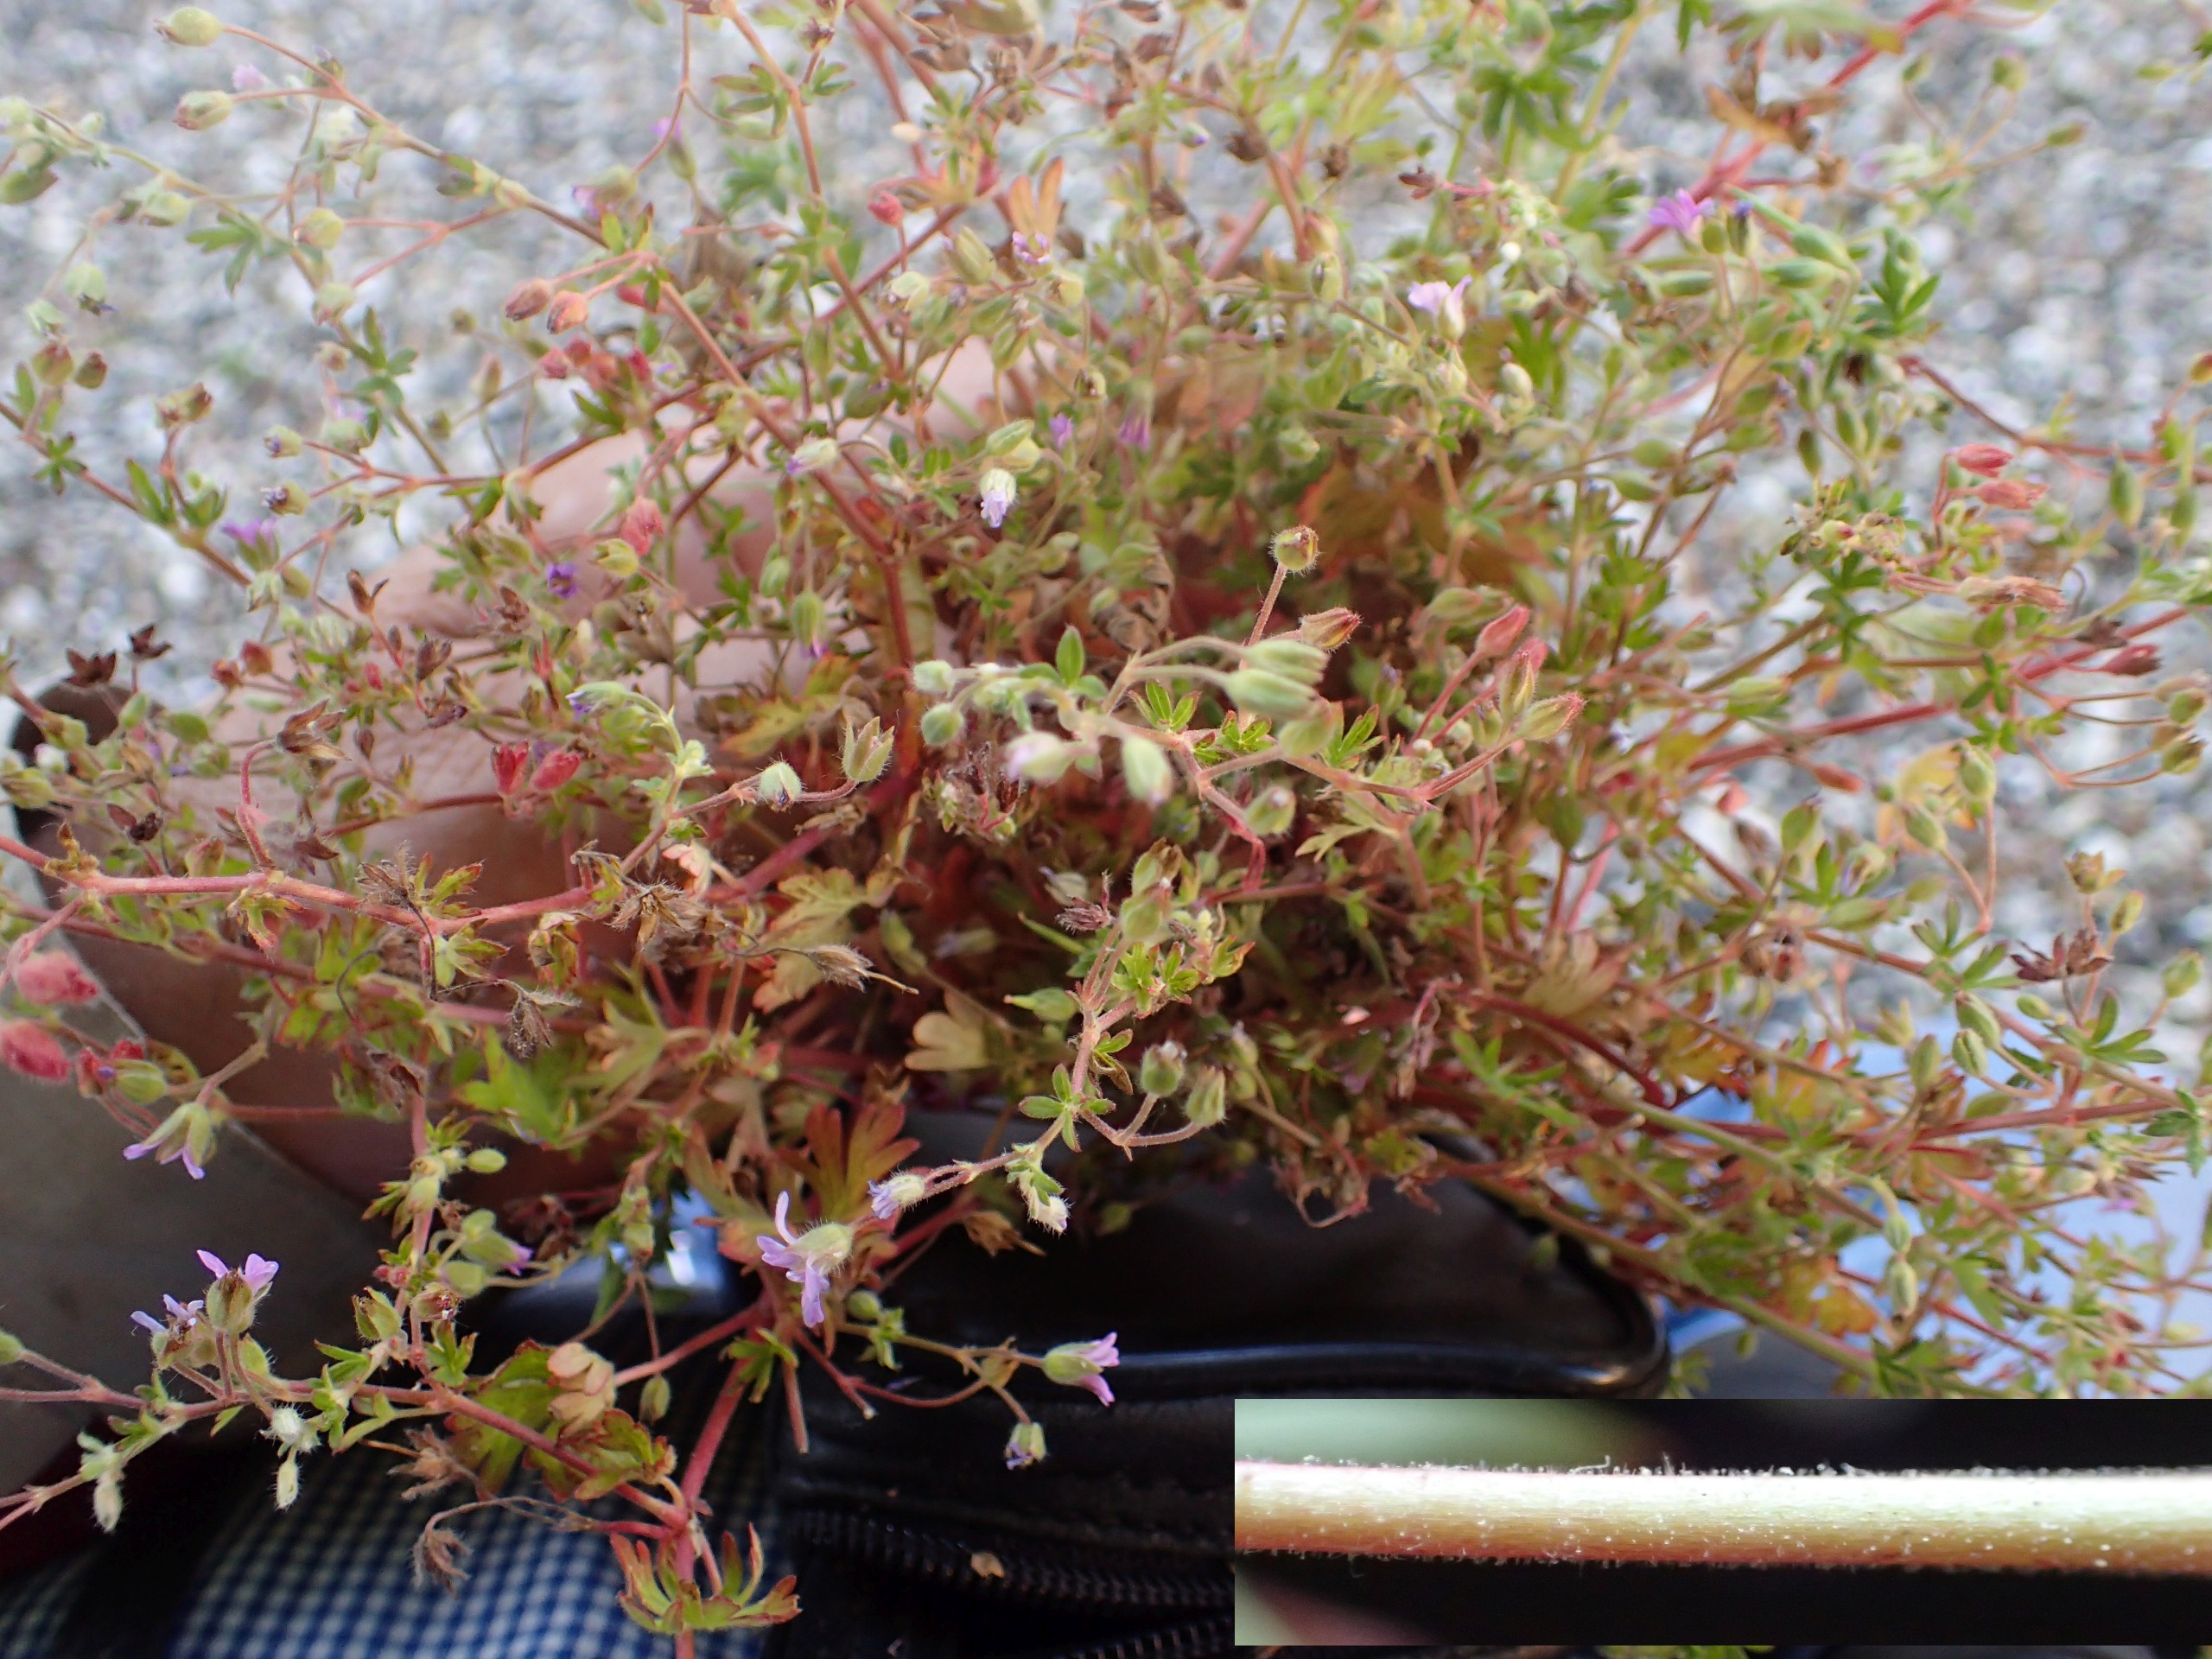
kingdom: Plantae
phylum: Tracheophyta
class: Magnoliopsida
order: Geraniales
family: Geraniaceae
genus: Geranium
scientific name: Geranium pusillum
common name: Liden storkenæb
